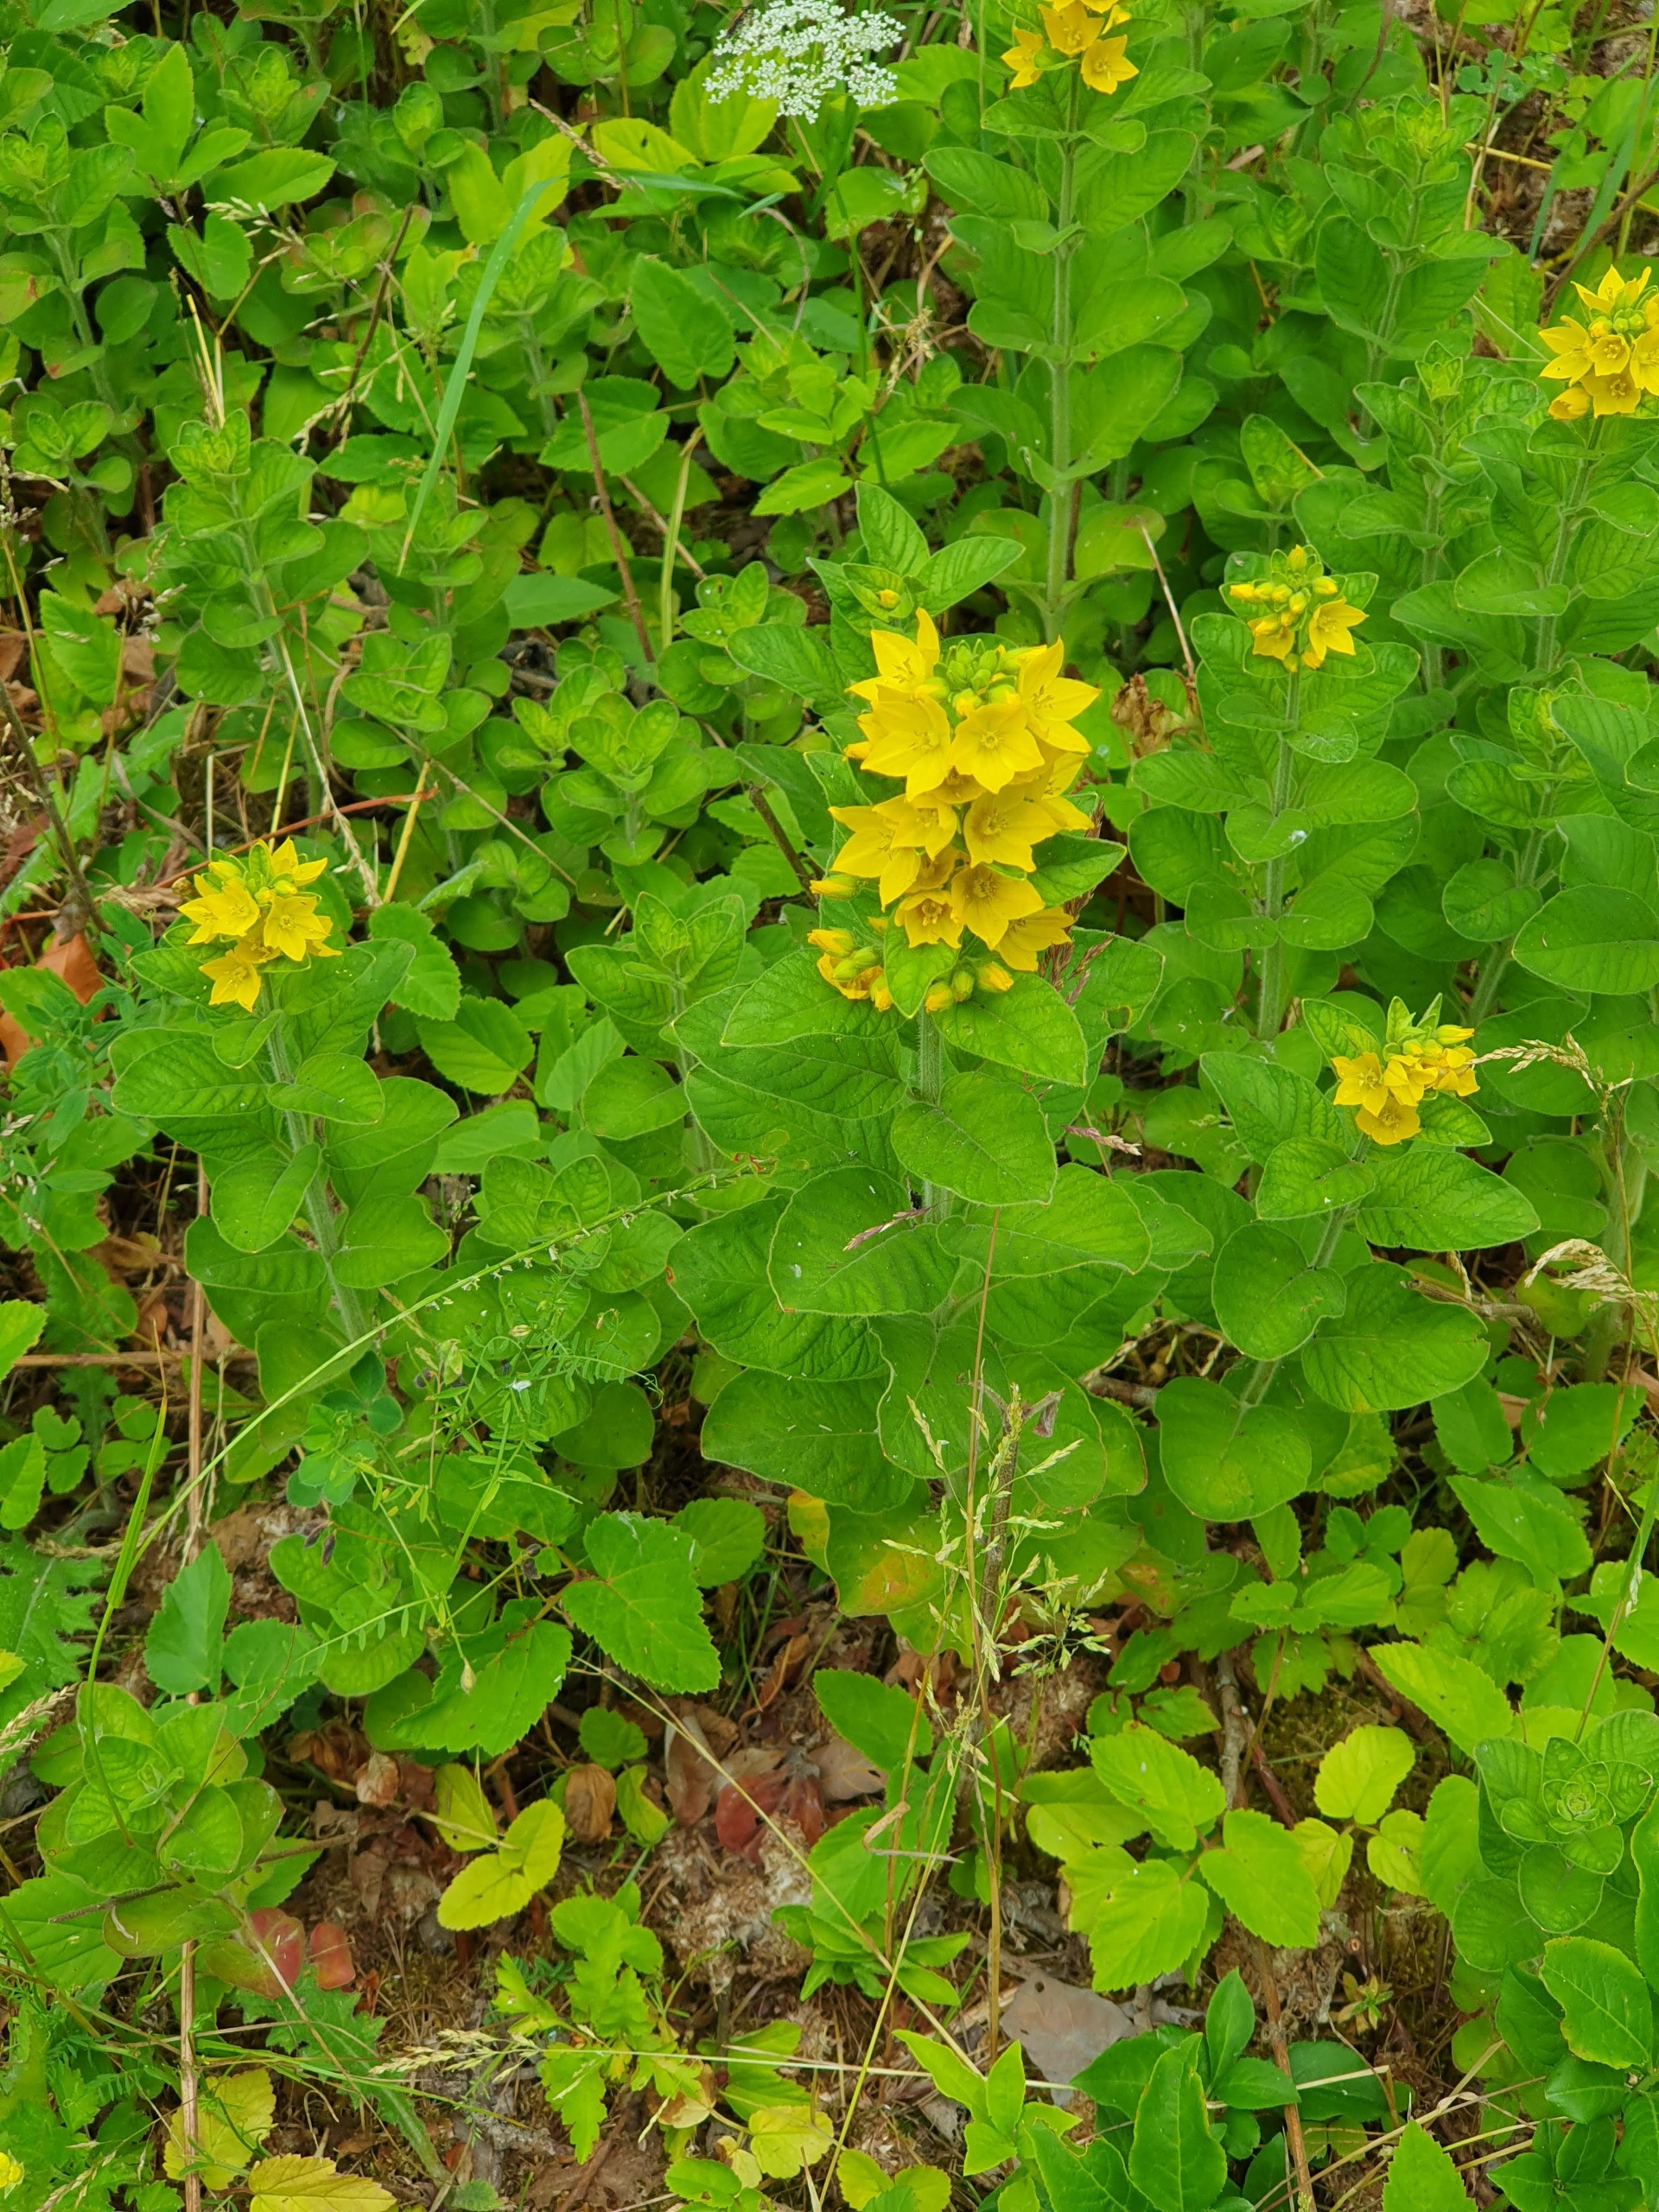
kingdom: Plantae
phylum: Tracheophyta
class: Magnoliopsida
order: Ericales
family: Primulaceae
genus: Lysimachia
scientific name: Lysimachia punctata
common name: Prikbladet fredløs
